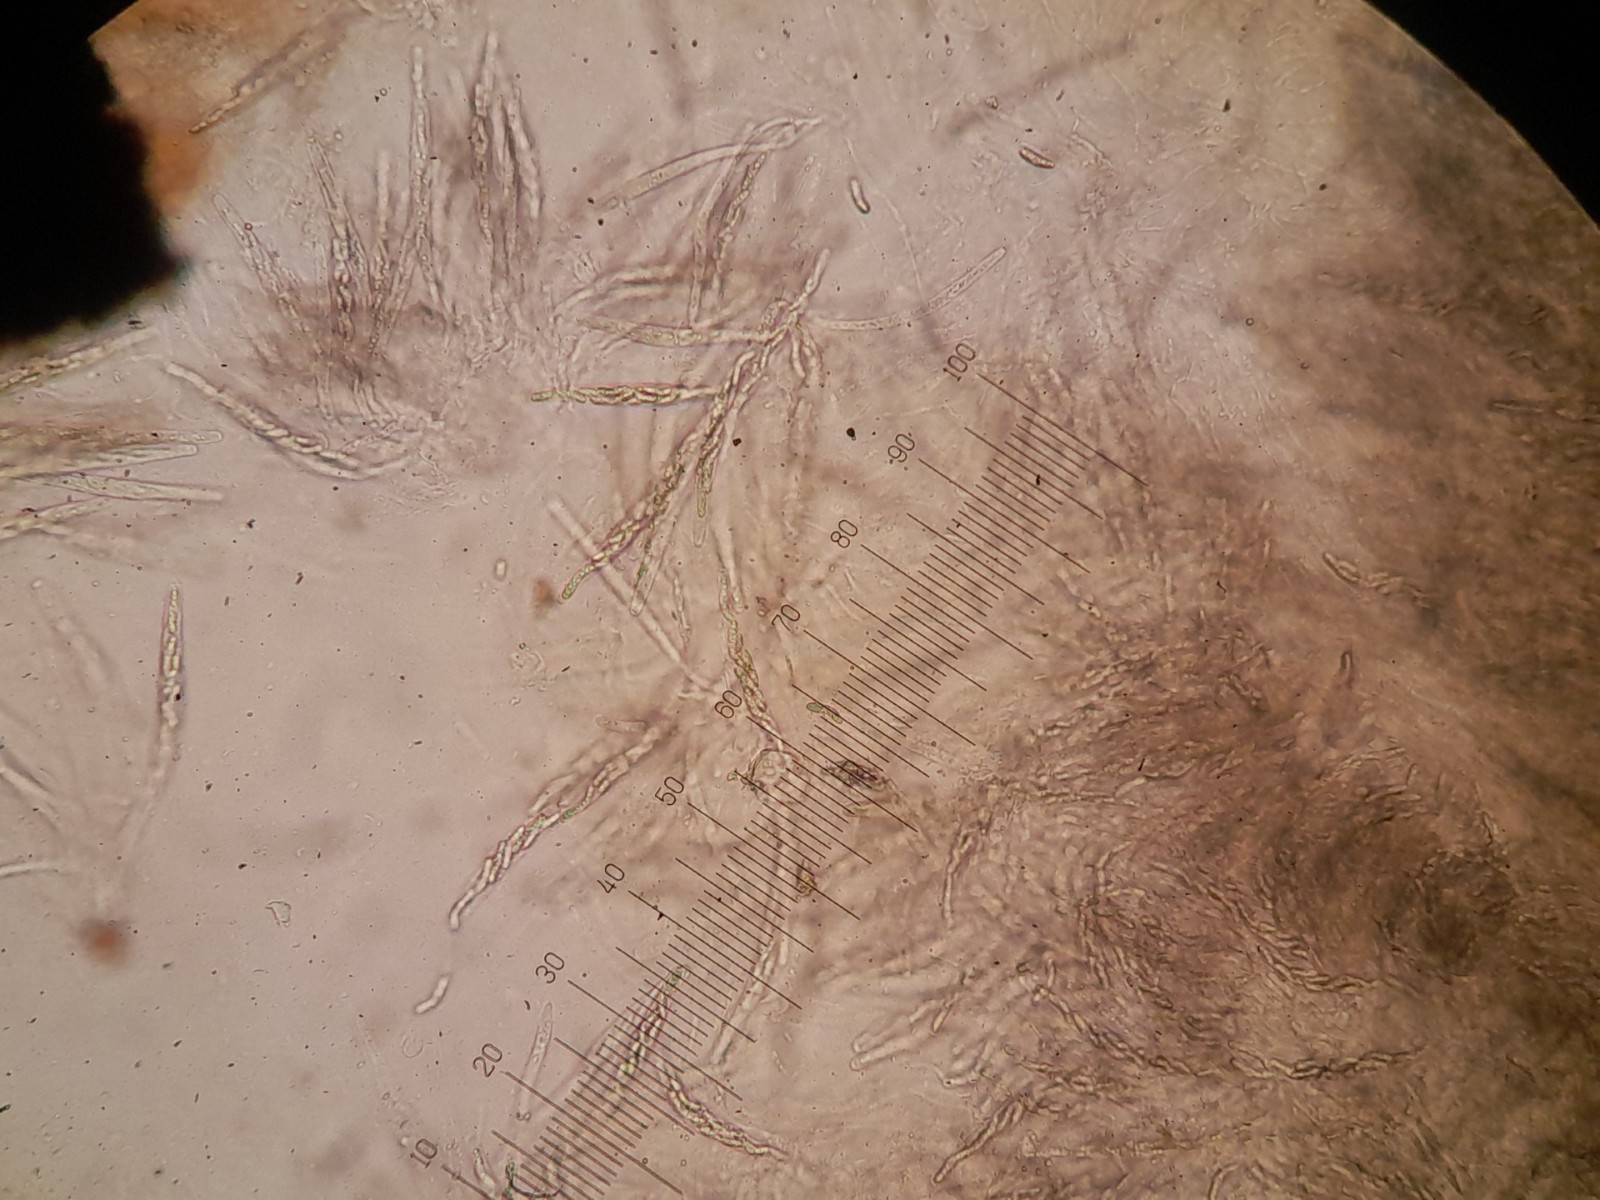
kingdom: Fungi
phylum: Ascomycota
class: Sordariomycetes
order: Sordariales
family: Helminthosphaeriaceae
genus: Ruzenia
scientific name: Ruzenia spermoides
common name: glat børstekerne
